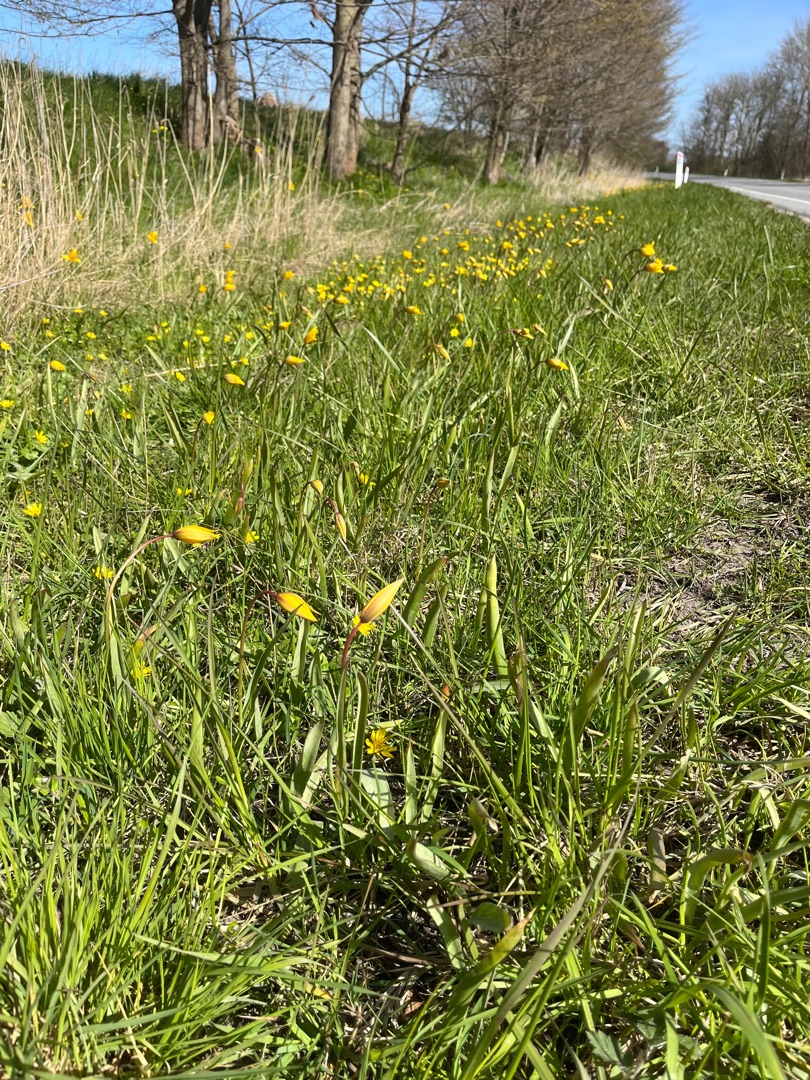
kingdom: Plantae
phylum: Tracheophyta
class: Liliopsida
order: Liliales
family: Liliaceae
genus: Tulipa
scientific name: Tulipa sylvestris
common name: Vild tulipan
